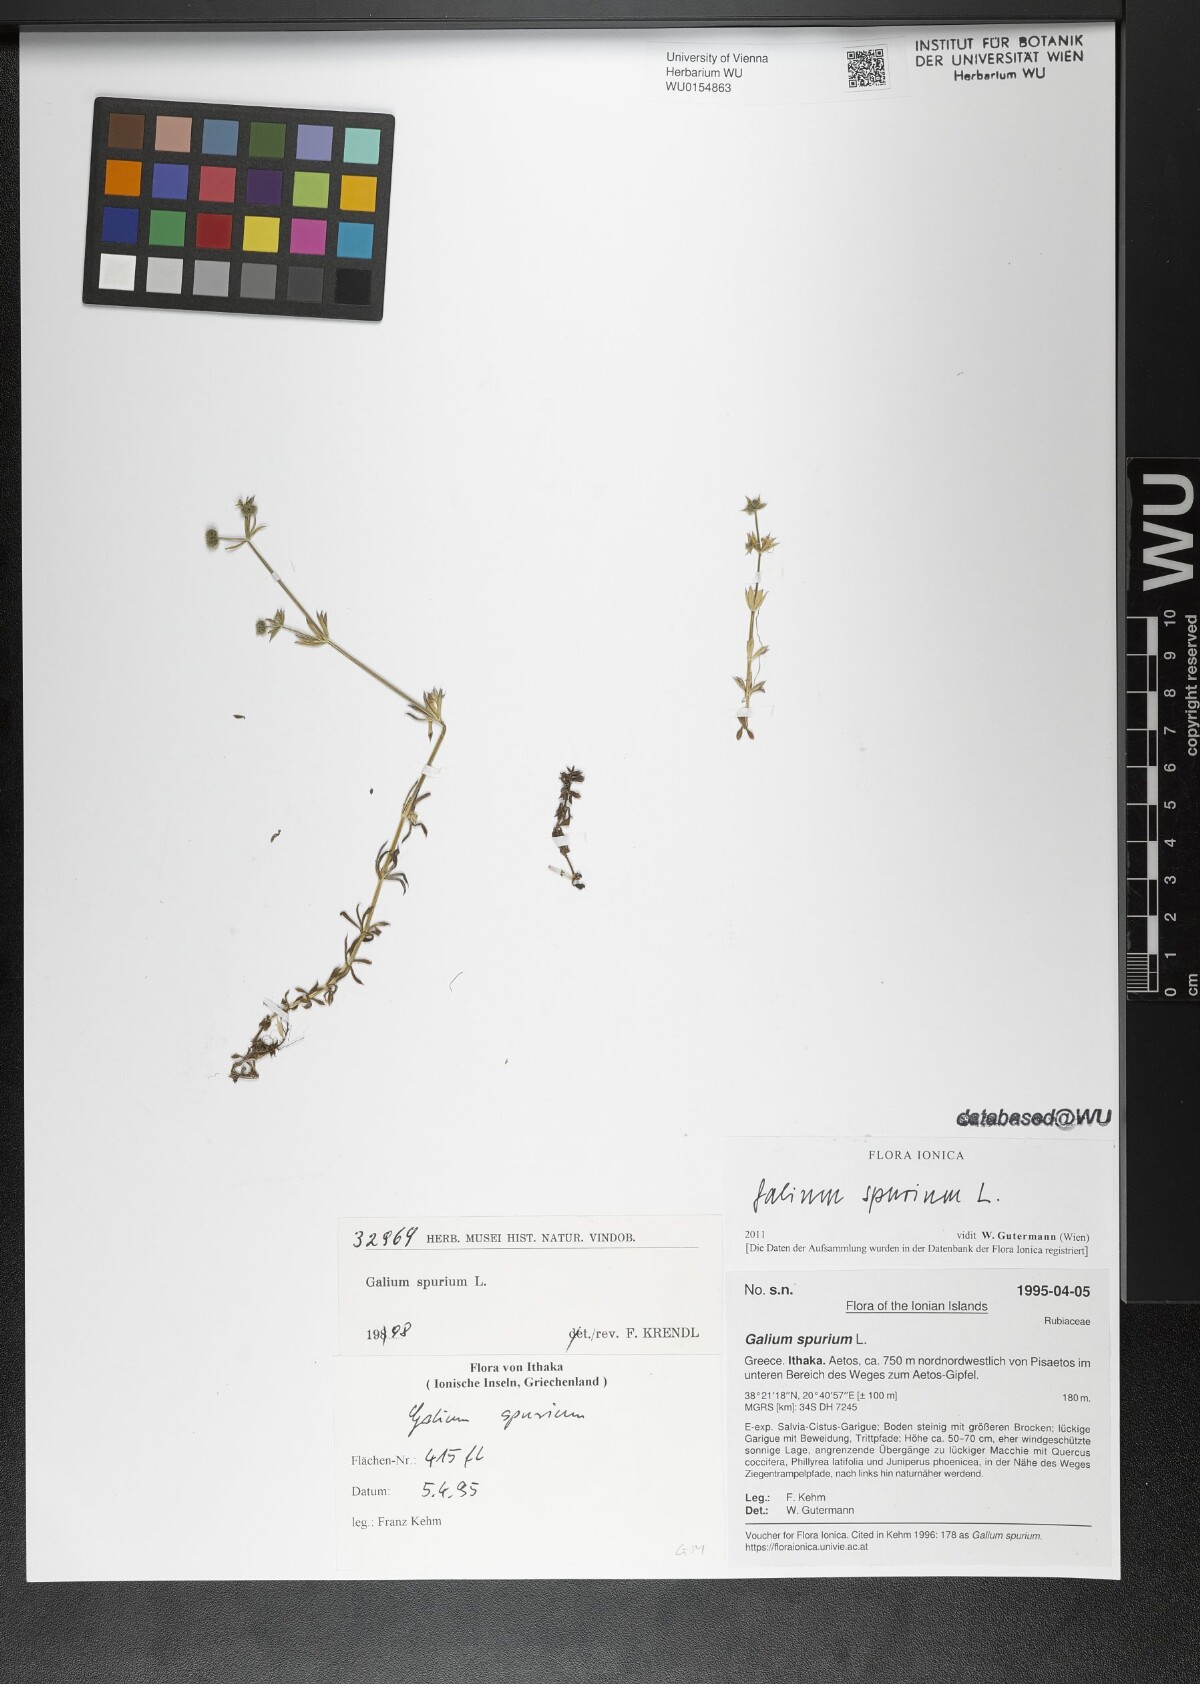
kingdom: Plantae
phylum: Tracheophyta
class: Magnoliopsida
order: Gentianales
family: Rubiaceae
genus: Galium
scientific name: Galium spurium
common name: False cleavers
